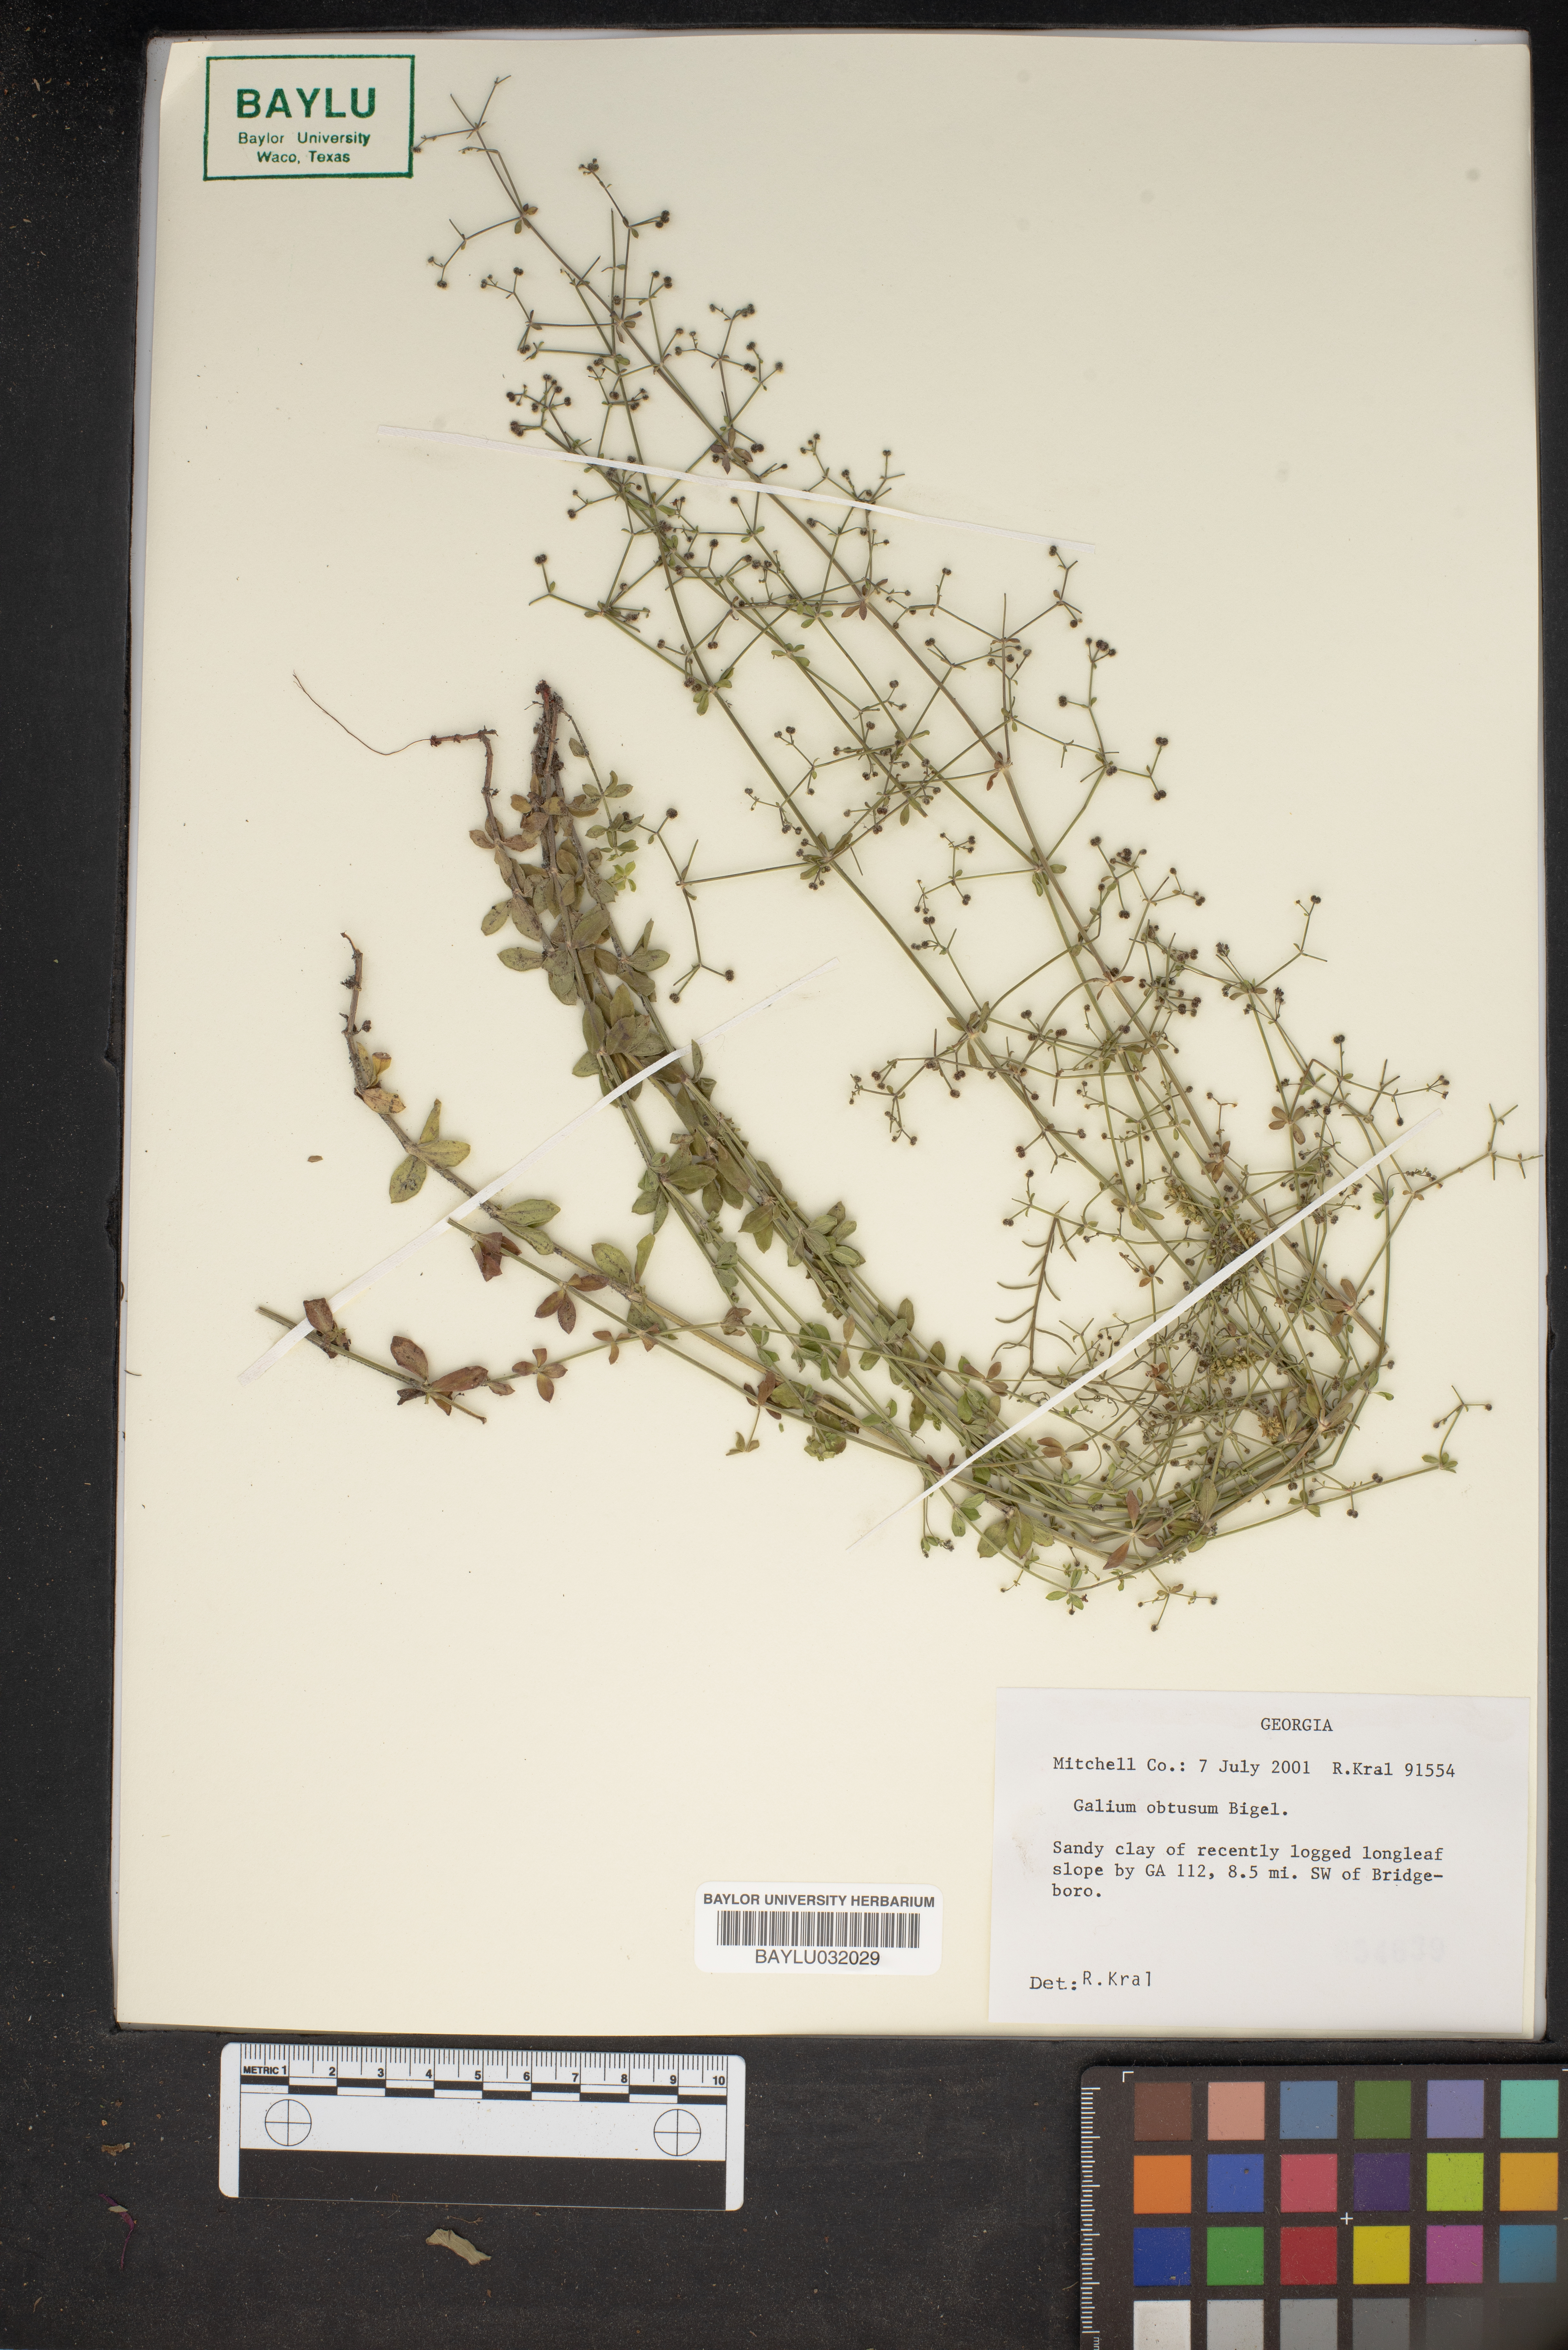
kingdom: Plantae
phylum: Tracheophyta
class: Magnoliopsida
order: Gentianales
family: Rubiaceae
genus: Galium
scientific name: Galium obtusum
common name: Blunt-leaved bedstraw
